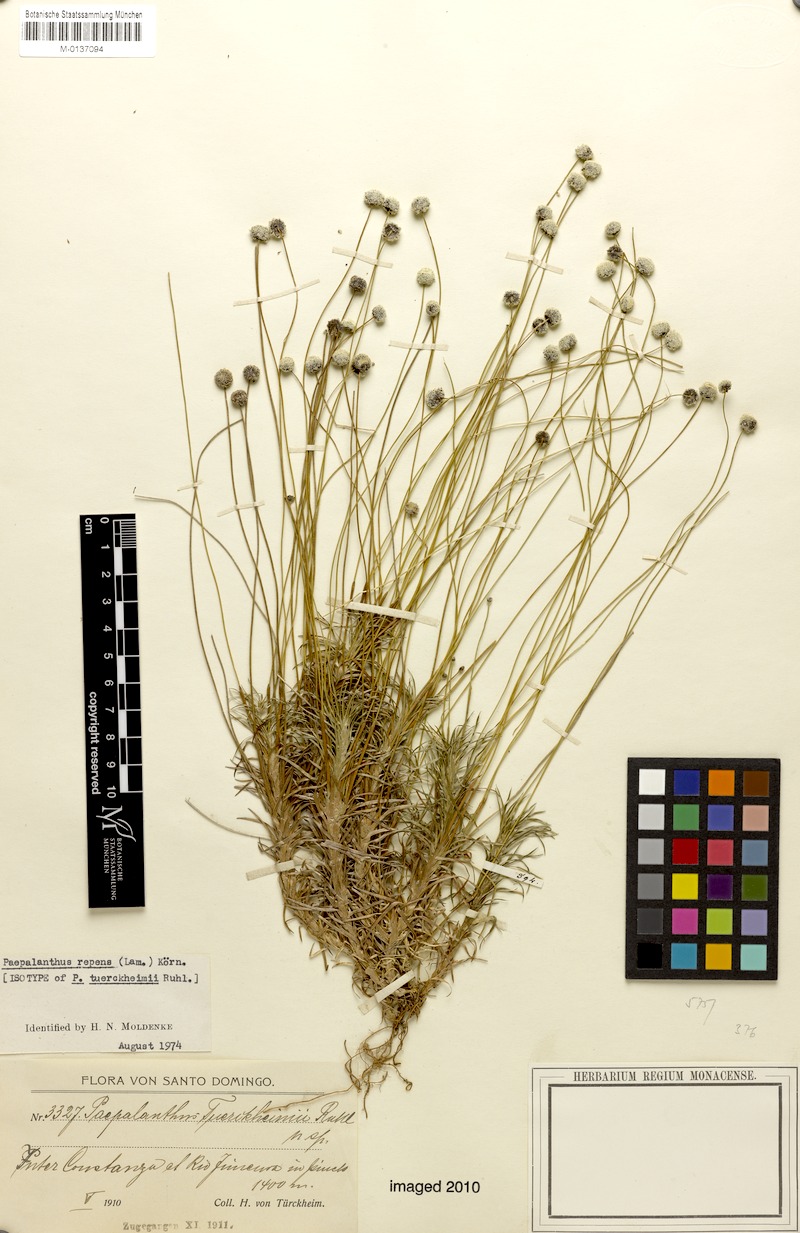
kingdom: Plantae
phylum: Tracheophyta
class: Liliopsida
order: Poales
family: Eriocaulaceae
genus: Paepalanthus
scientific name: Paepalanthus repens
